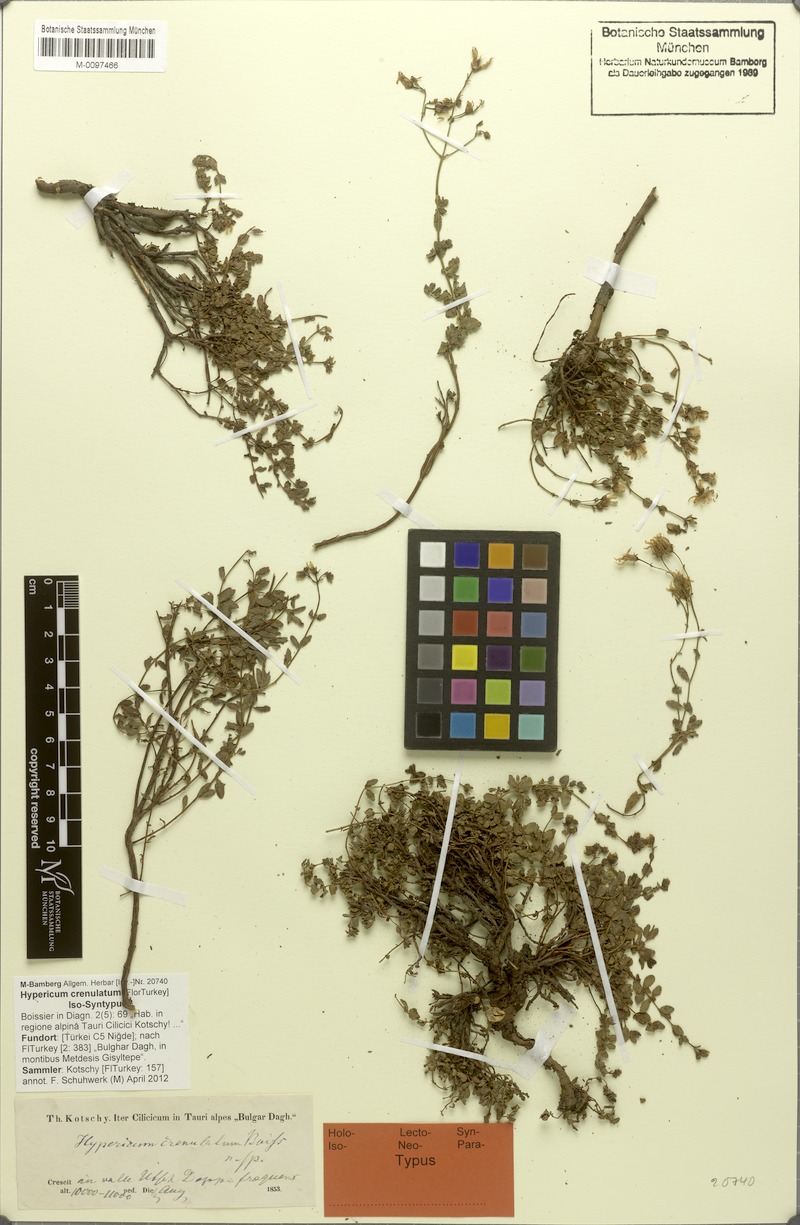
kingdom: Plantae
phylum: Tracheophyta
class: Magnoliopsida
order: Malpighiales
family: Hypericaceae
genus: Hypericum
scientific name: Hypericum crenulatum
